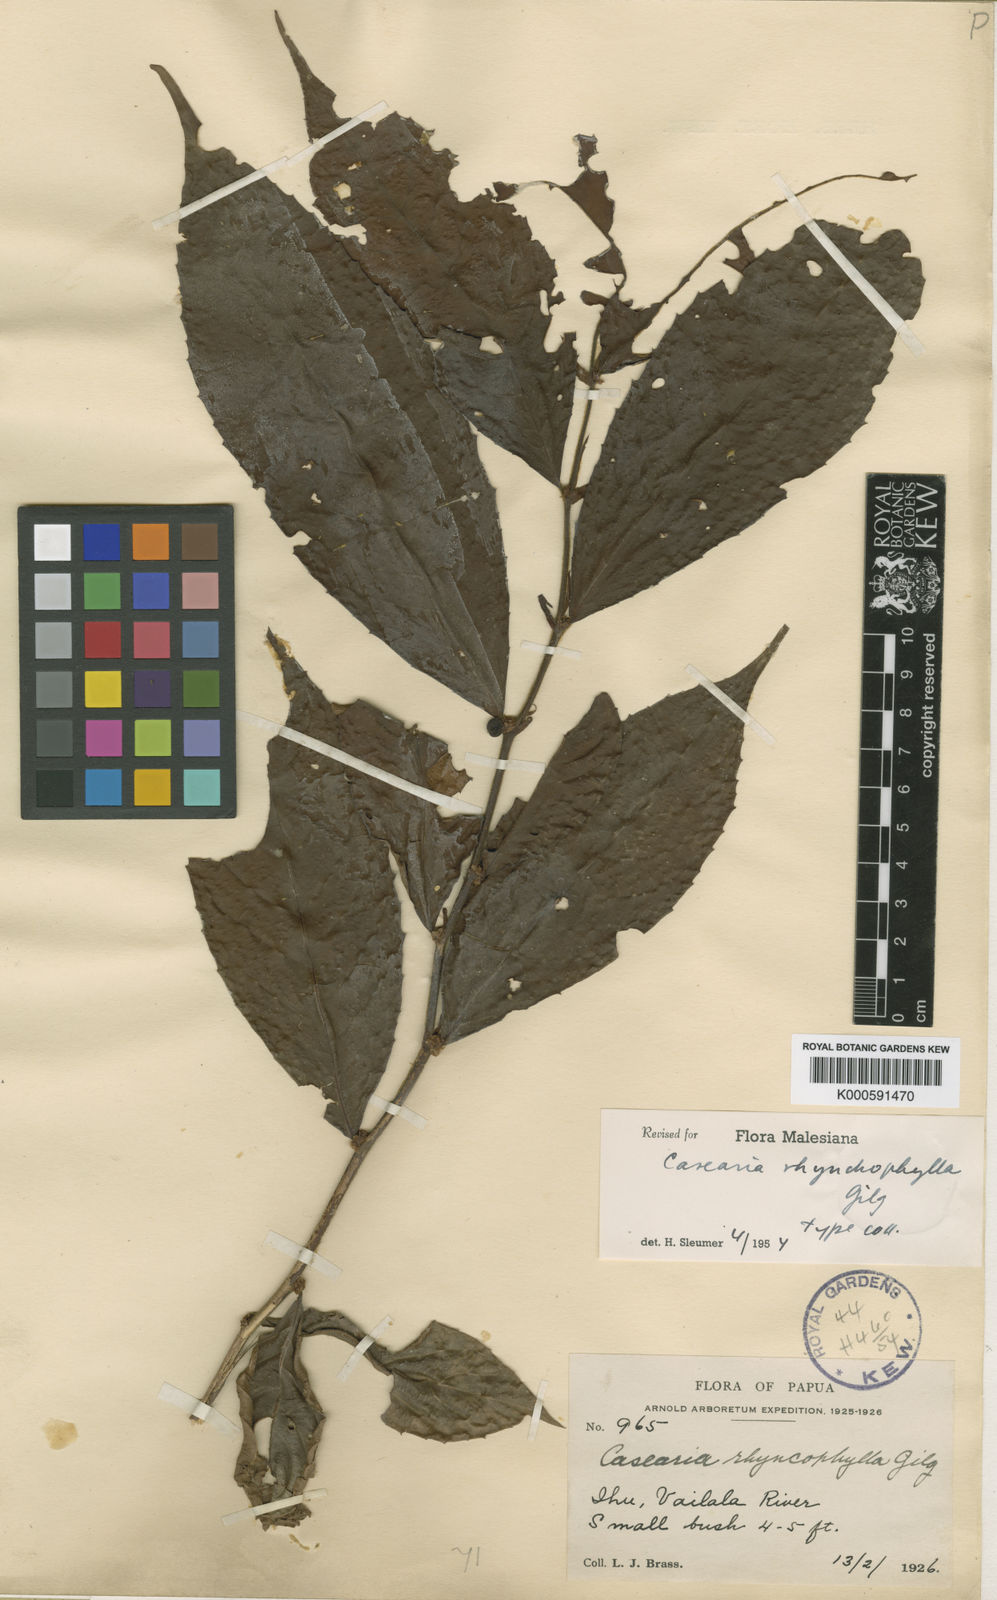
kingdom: Plantae
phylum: Tracheophyta
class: Magnoliopsida
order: Malpighiales
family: Salicaceae
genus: Casearia
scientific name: Casearia macrantha
